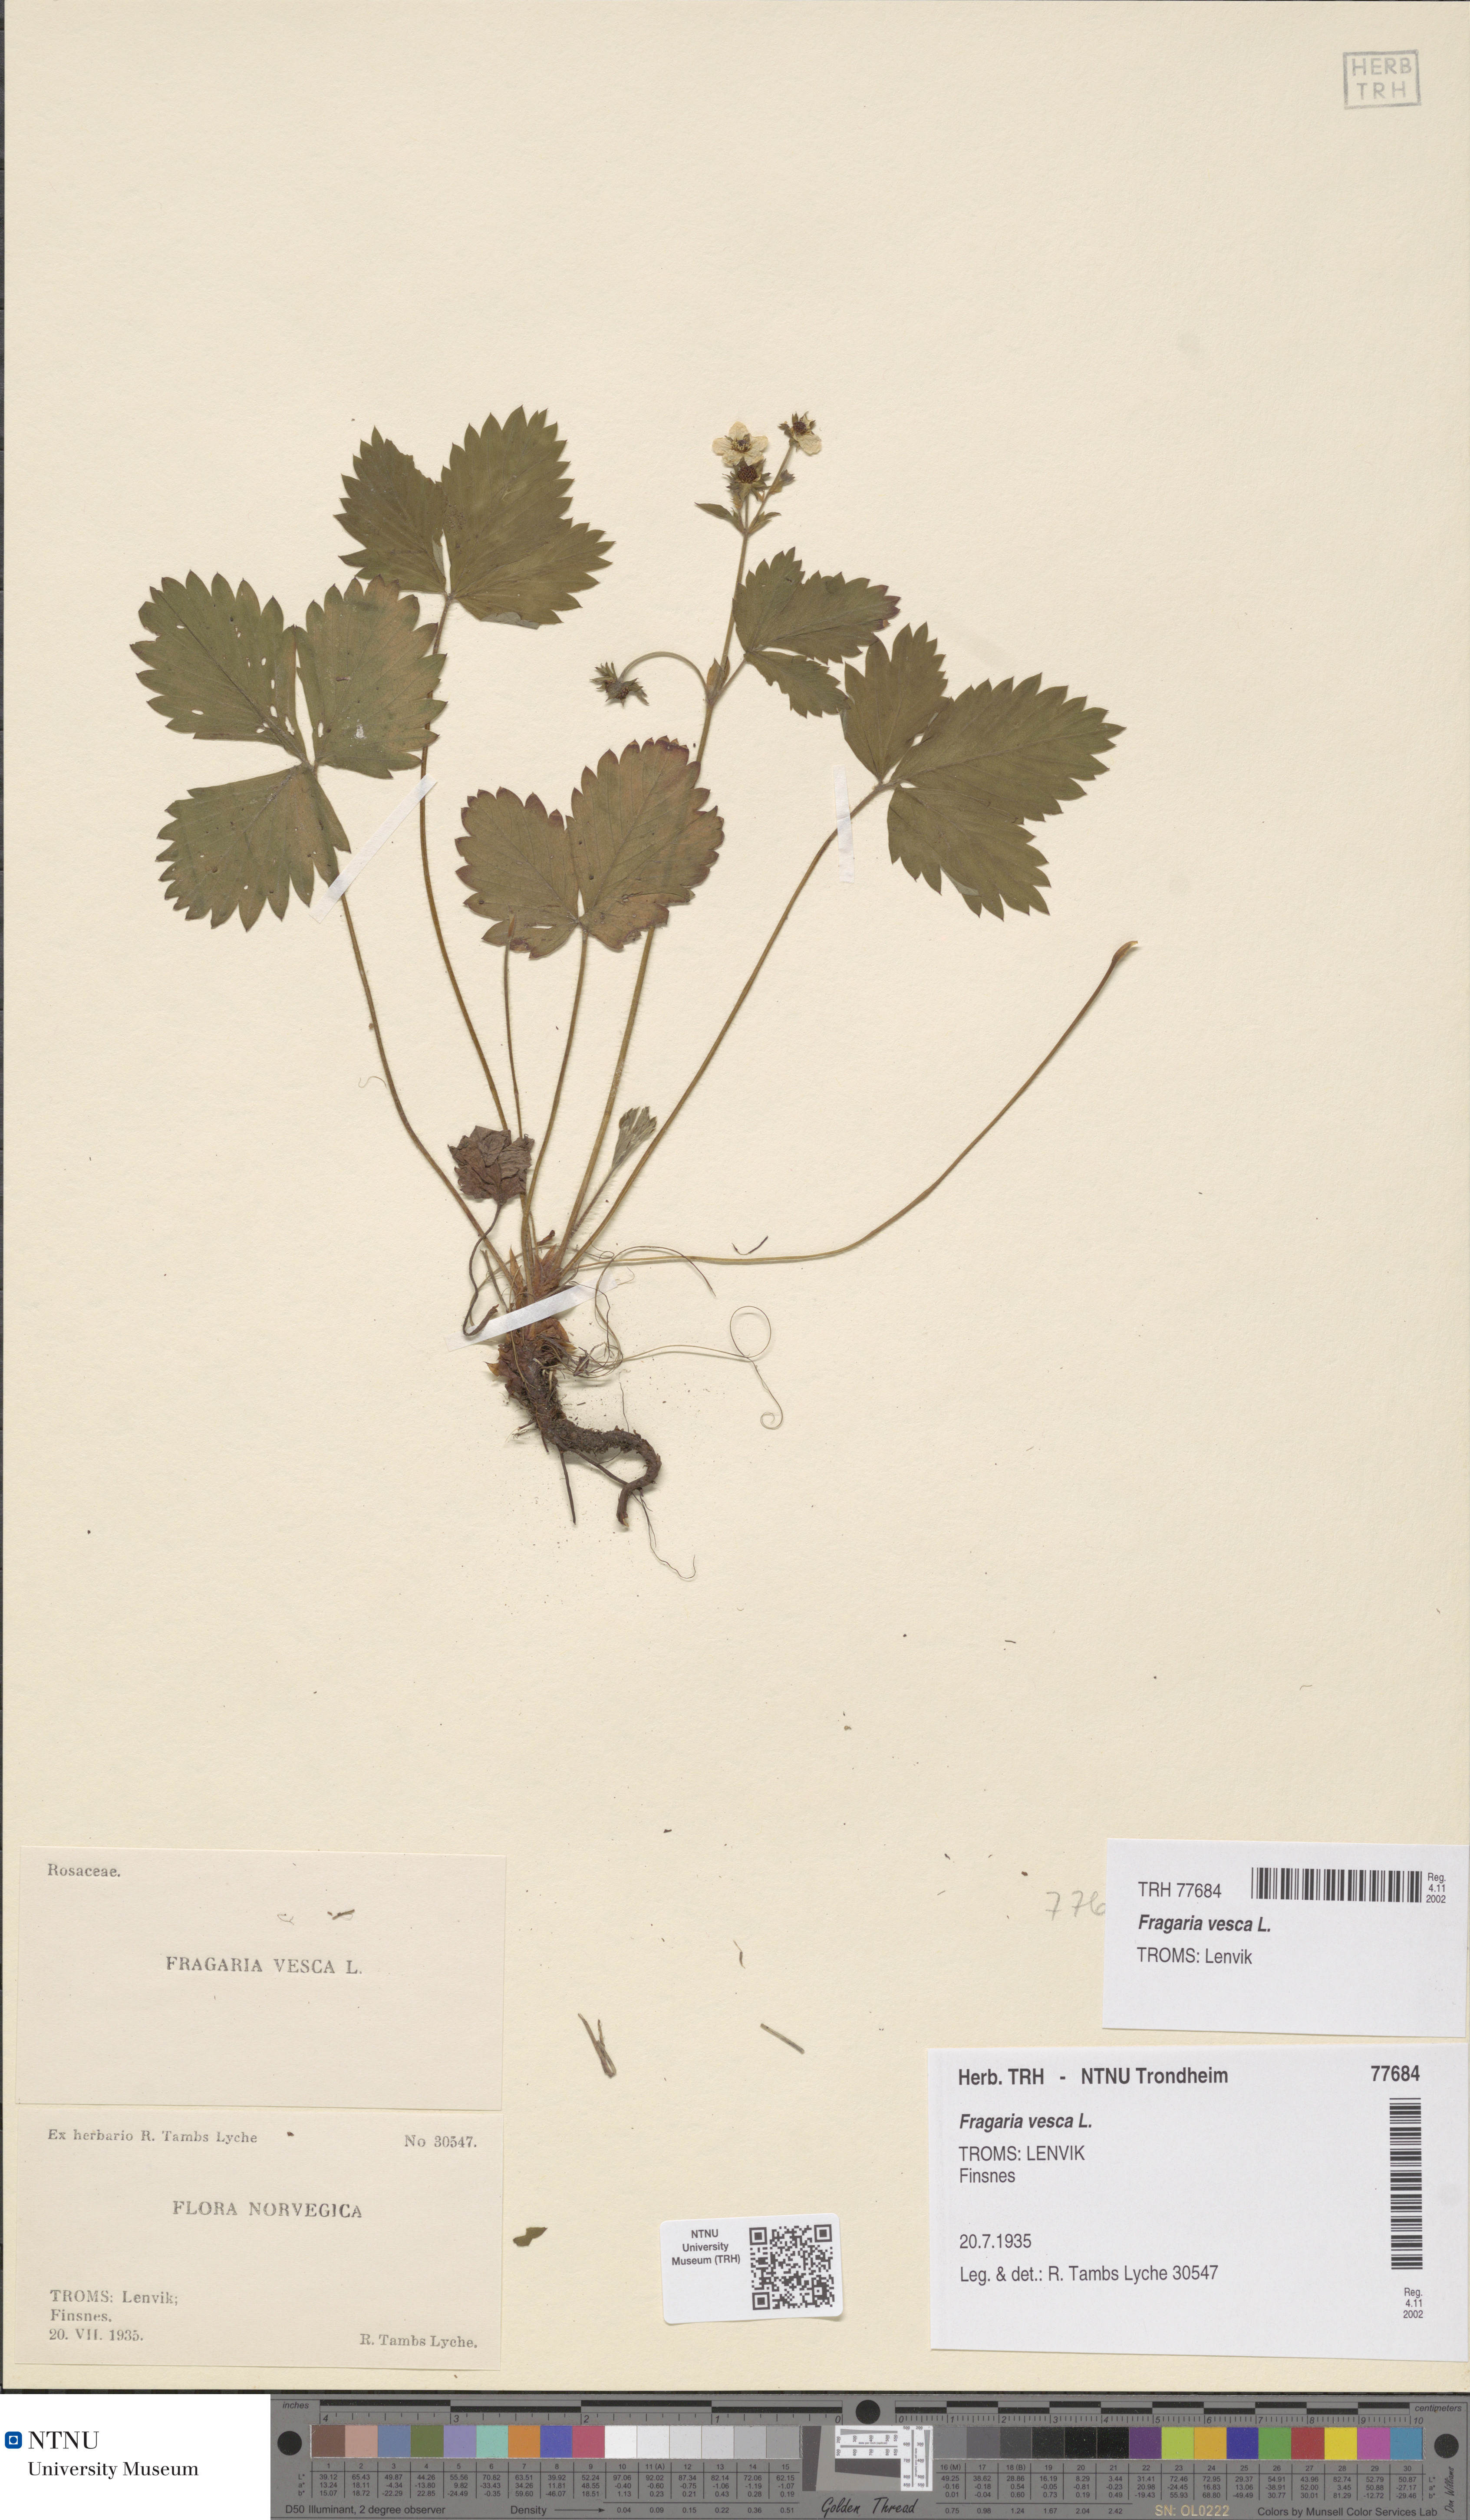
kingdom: Plantae
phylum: Tracheophyta
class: Magnoliopsida
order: Rosales
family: Rosaceae
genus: Fragaria
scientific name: Fragaria vesca
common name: Wild strawberry
